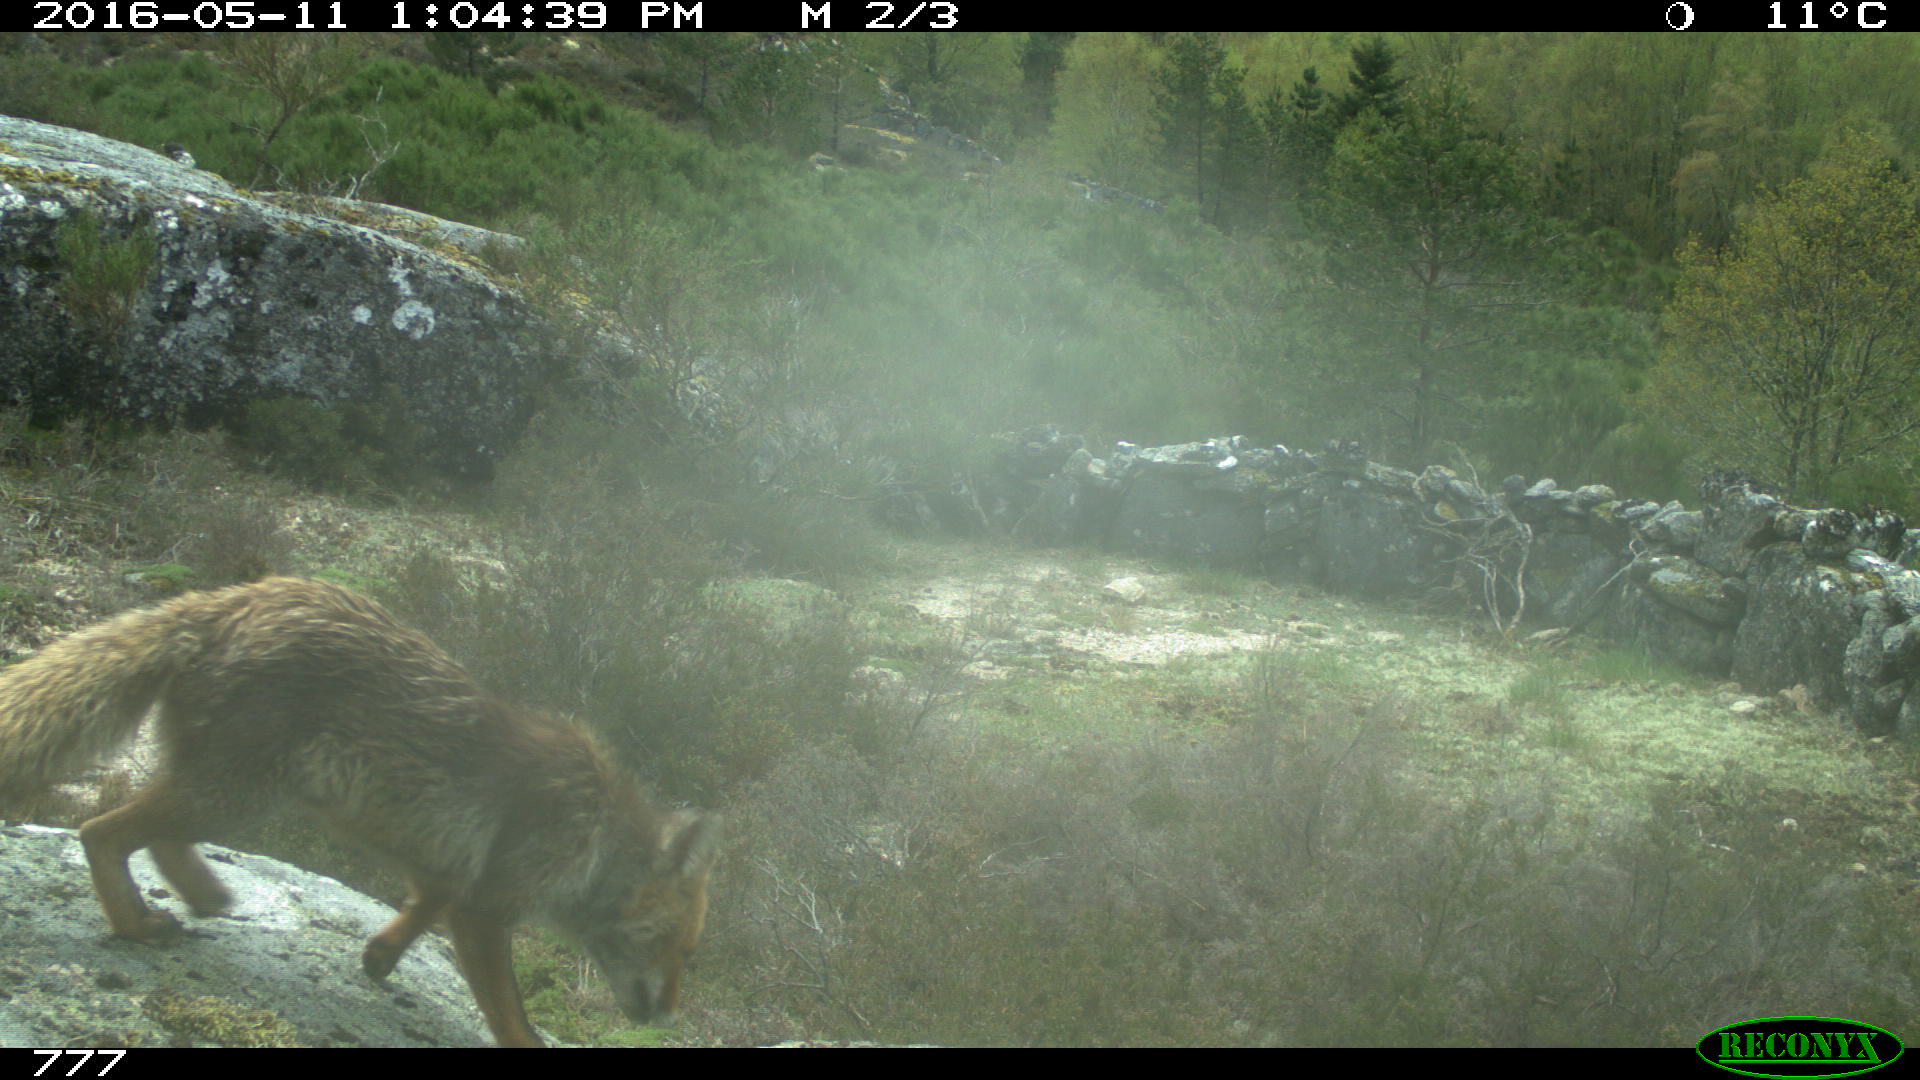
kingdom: Animalia
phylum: Chordata
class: Mammalia
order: Carnivora
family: Canidae
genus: Vulpes
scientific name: Vulpes vulpes
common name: Red fox
